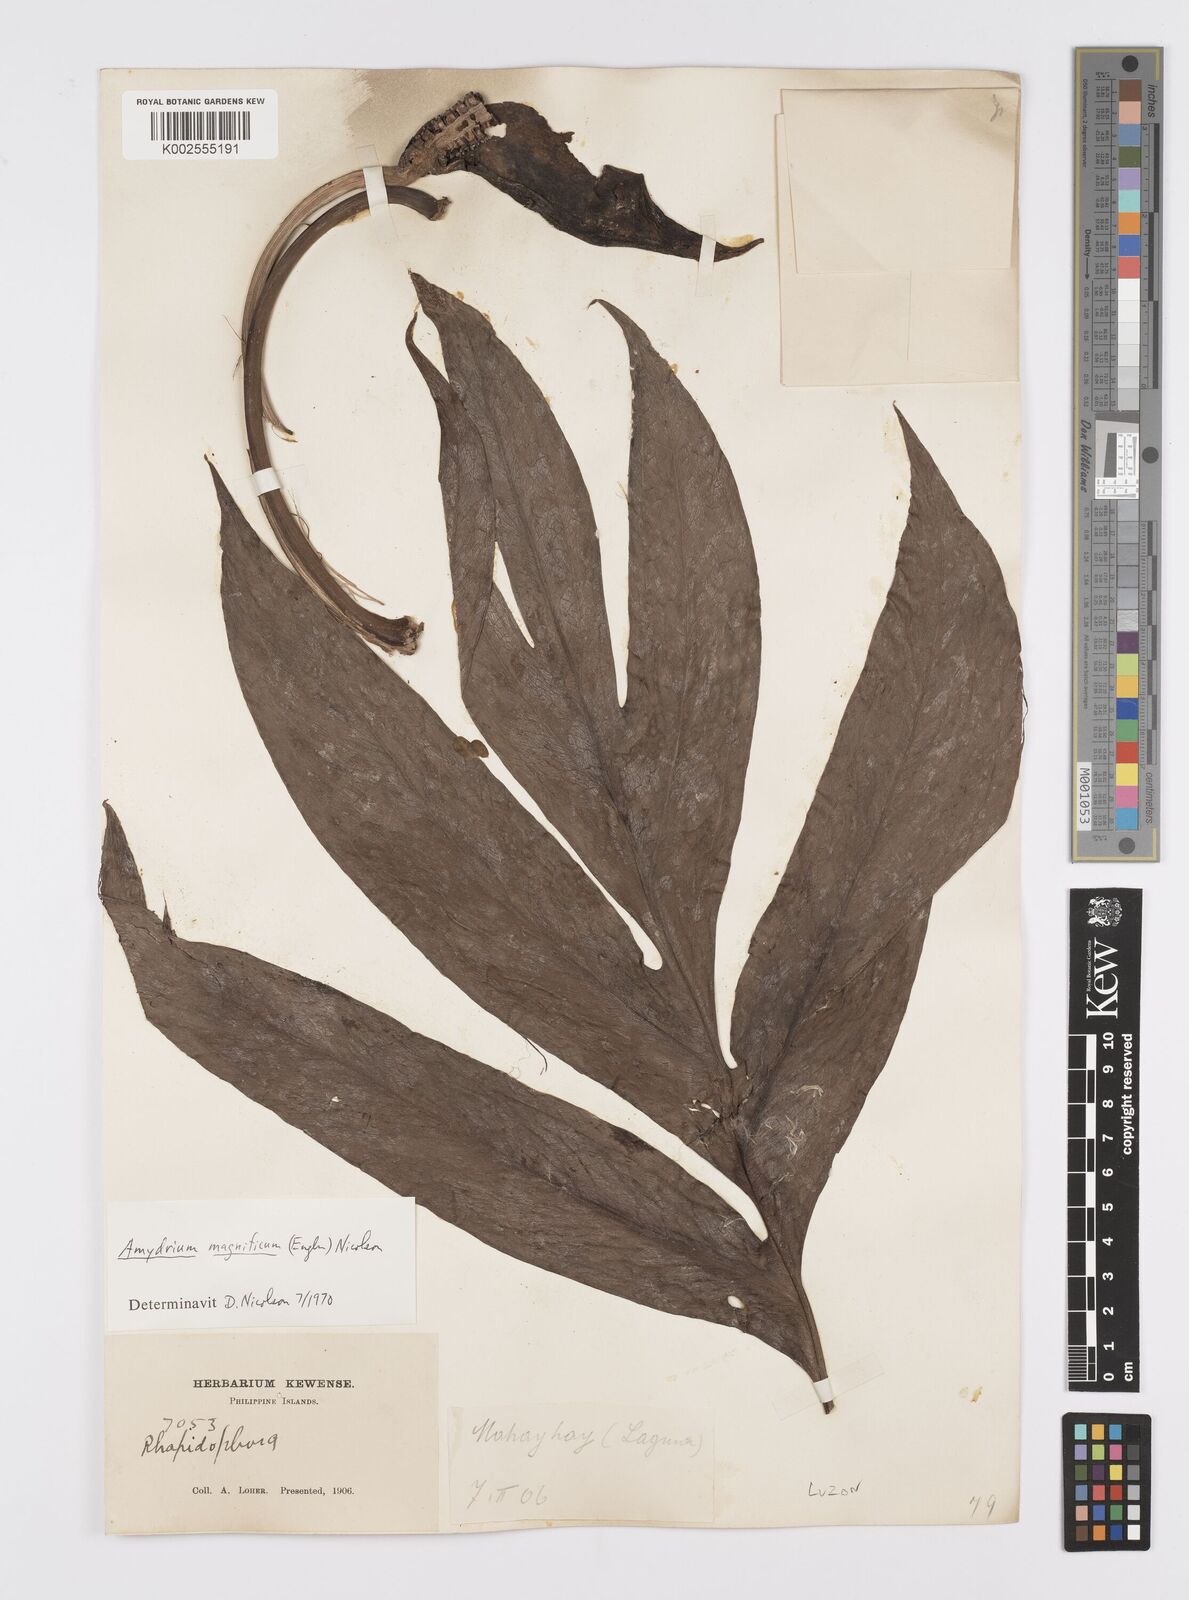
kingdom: Plantae
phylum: Tracheophyta
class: Liliopsida
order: Alismatales
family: Araceae
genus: Amydrium
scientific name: Amydrium zippelianum
